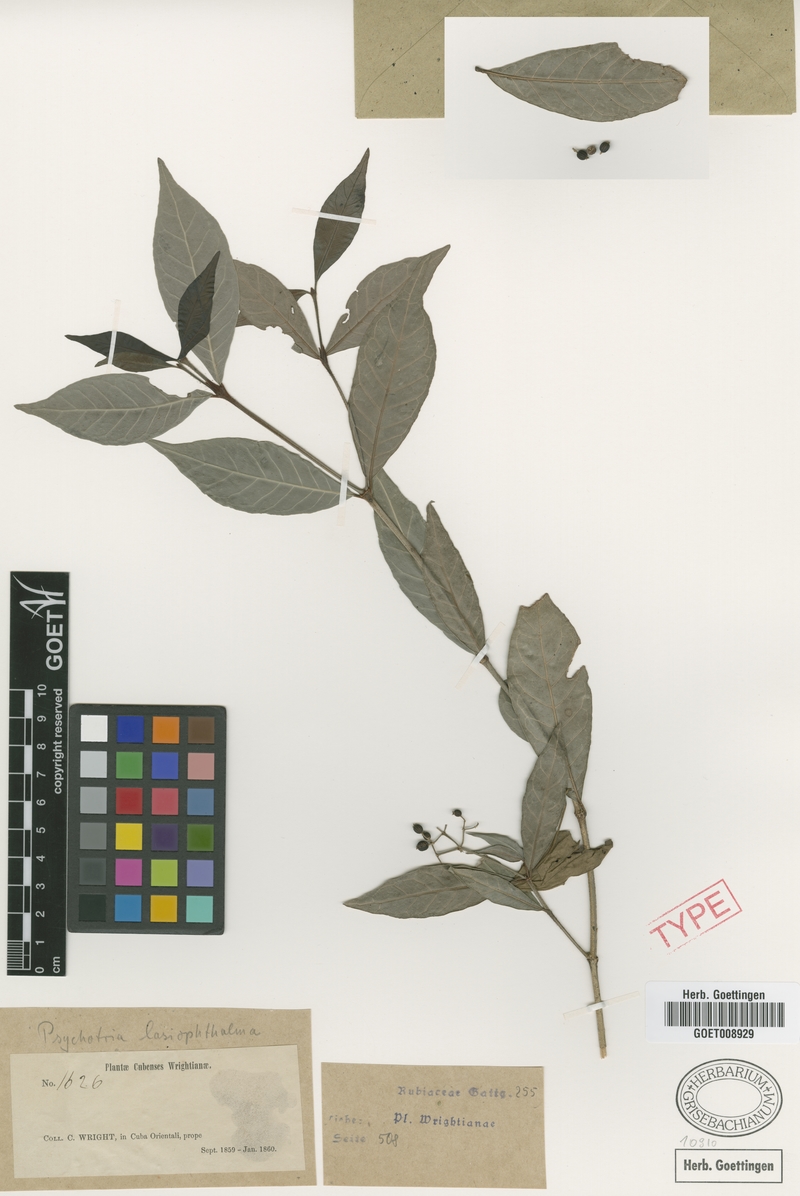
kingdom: Plantae
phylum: Tracheophyta
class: Magnoliopsida
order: Gentianales
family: Rubiaceae
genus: Psychotria
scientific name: Psychotria lasiophthalma
